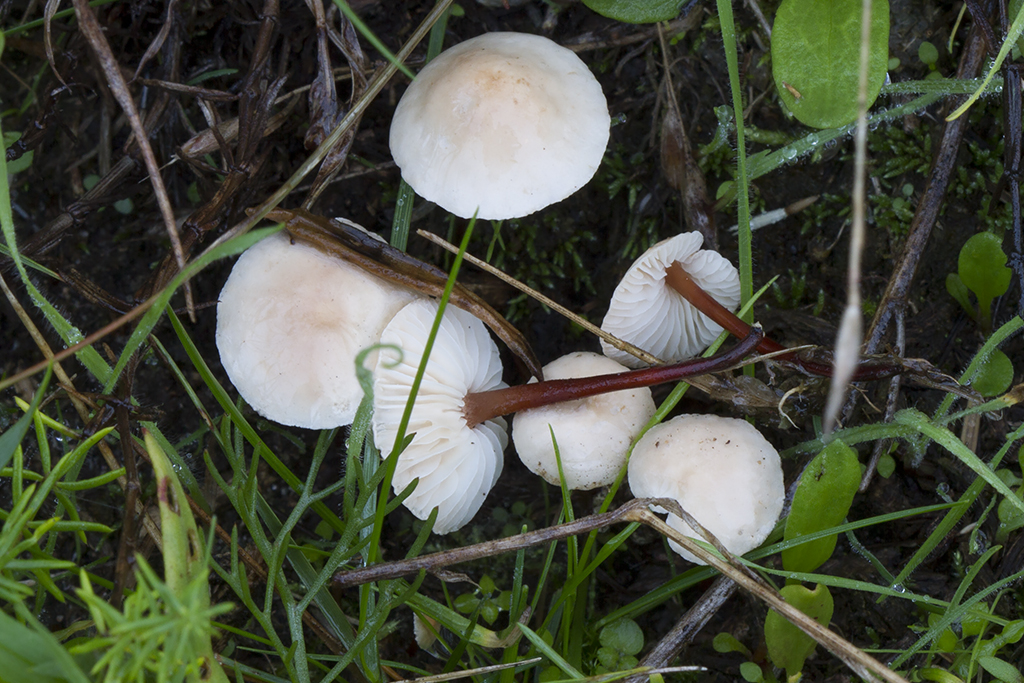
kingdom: Fungi
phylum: Basidiomycota
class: Agaricomycetes
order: Agaricales
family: Omphalotaceae
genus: Mycetinis
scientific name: Mycetinis scorodonius
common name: lille løghat
